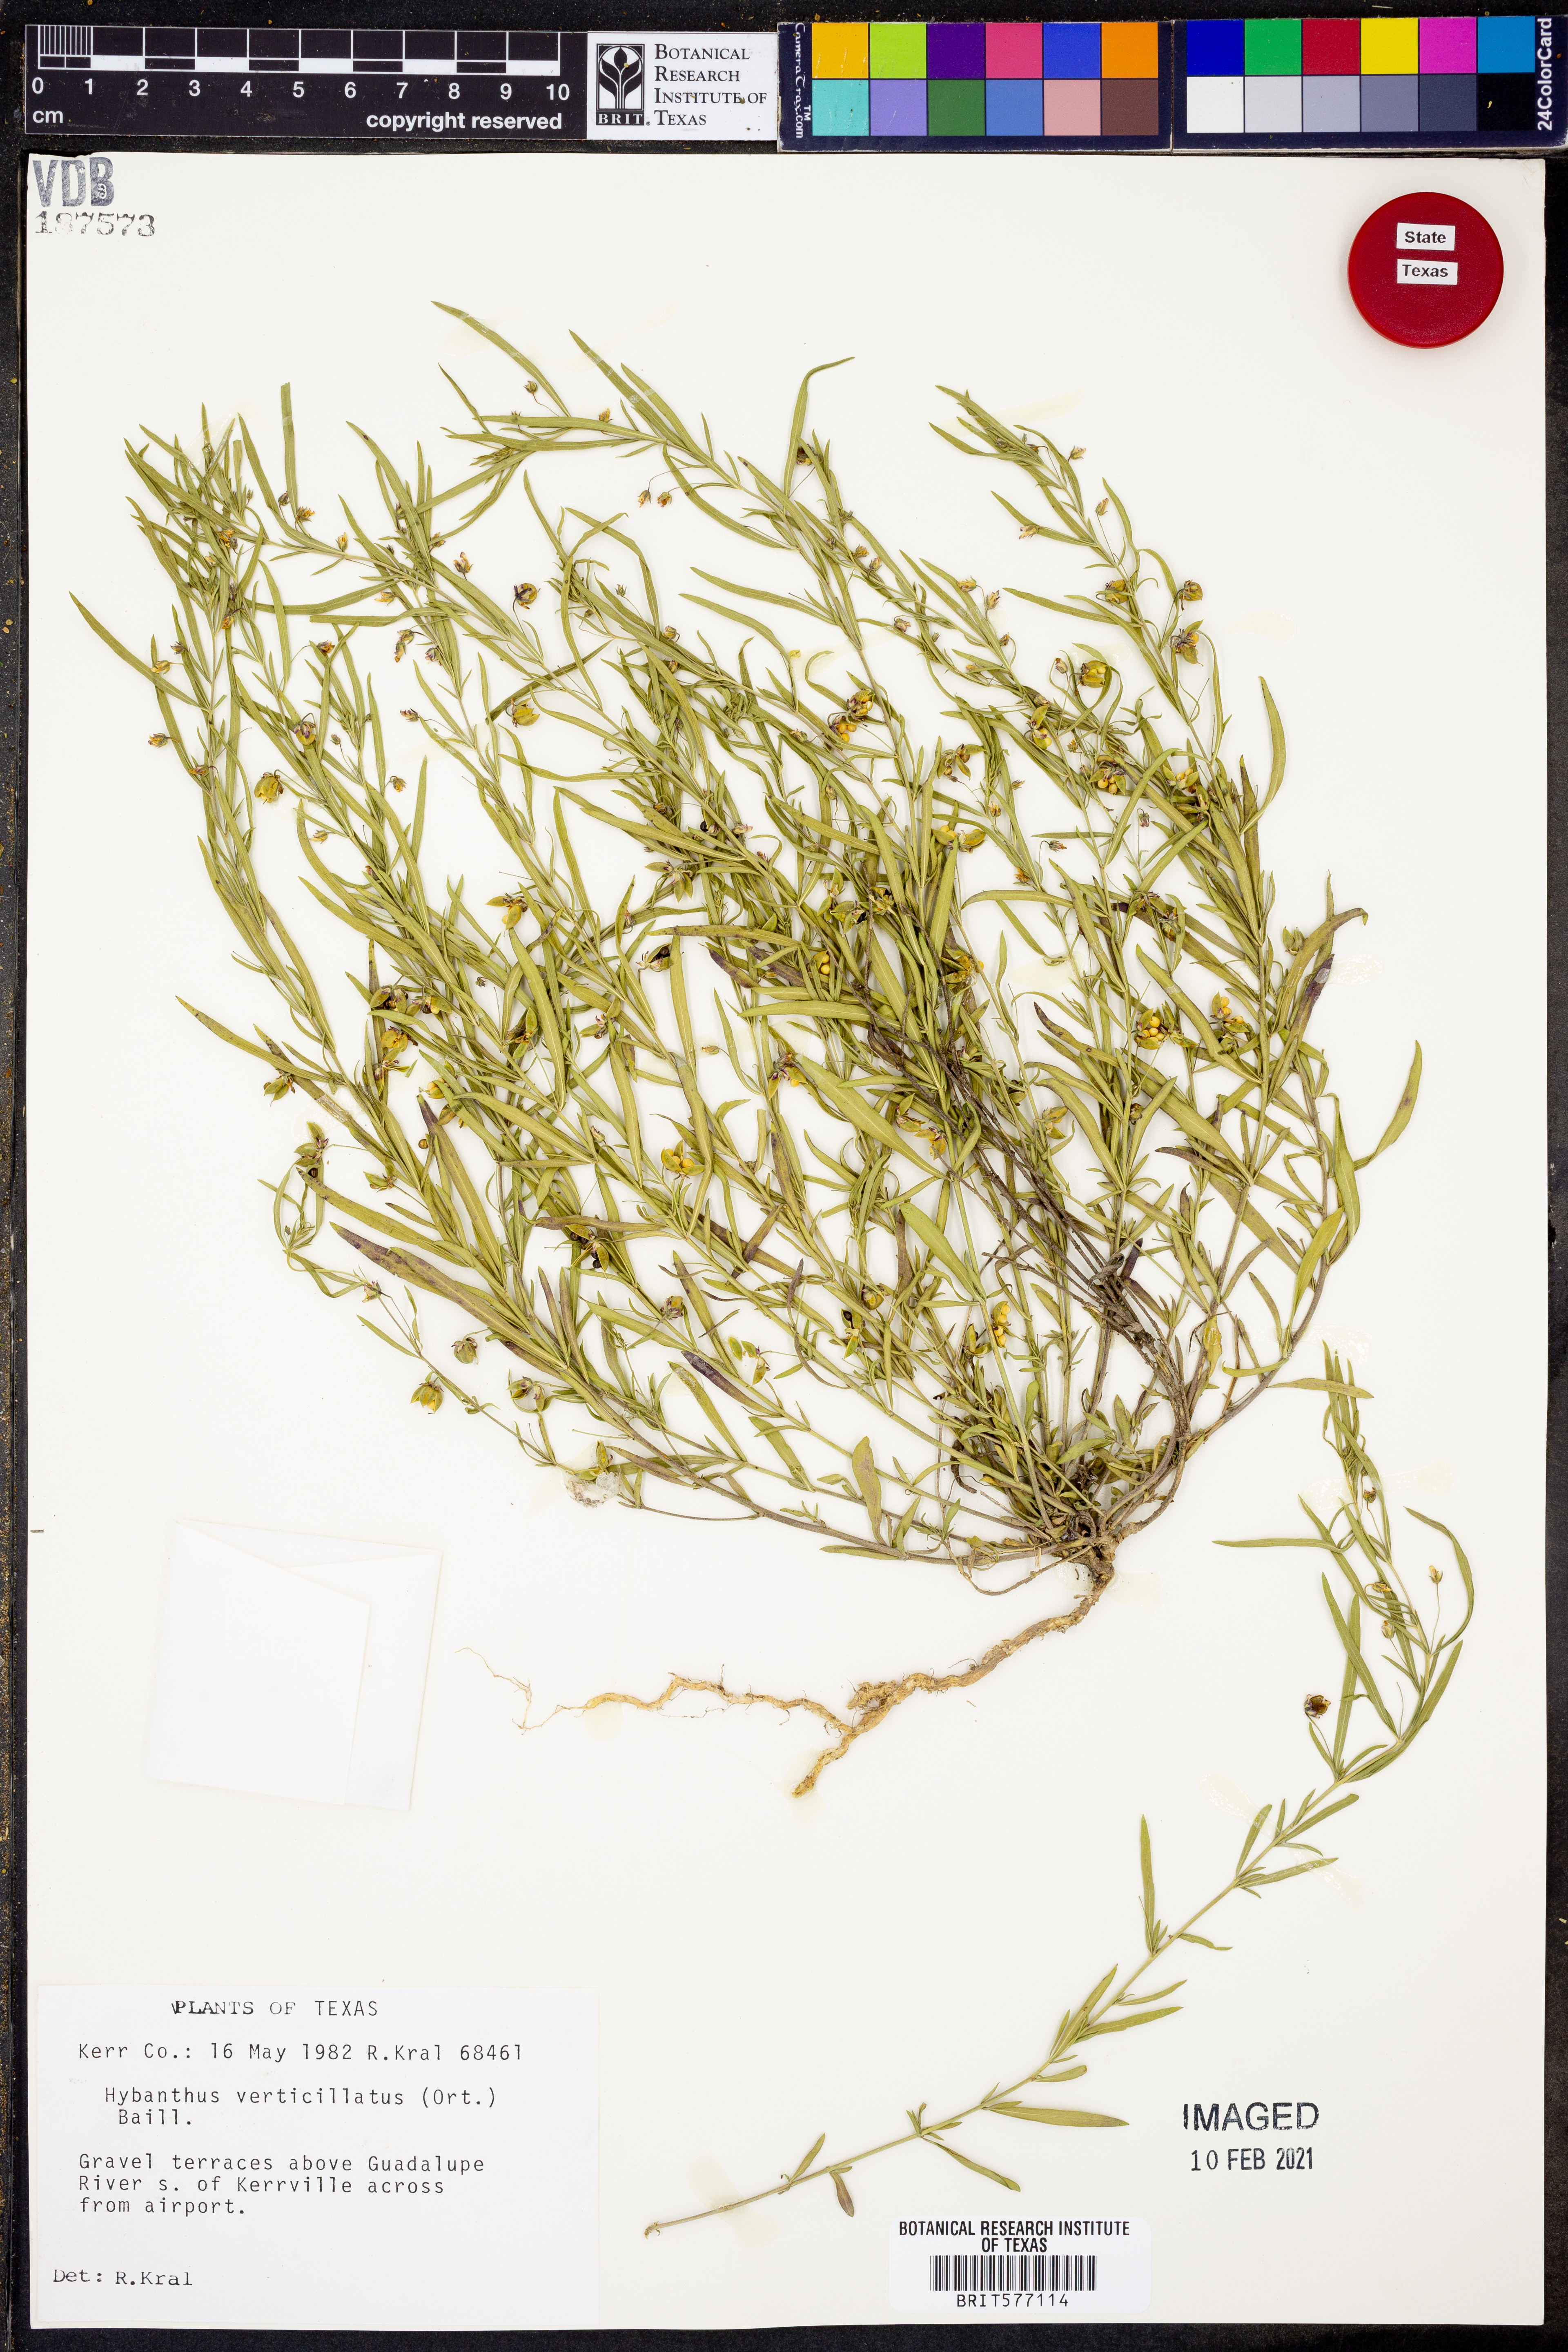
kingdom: Plantae
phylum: Tracheophyta
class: Magnoliopsida
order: Malpighiales
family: Violaceae
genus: Pombalia
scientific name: Pombalia verticillata
